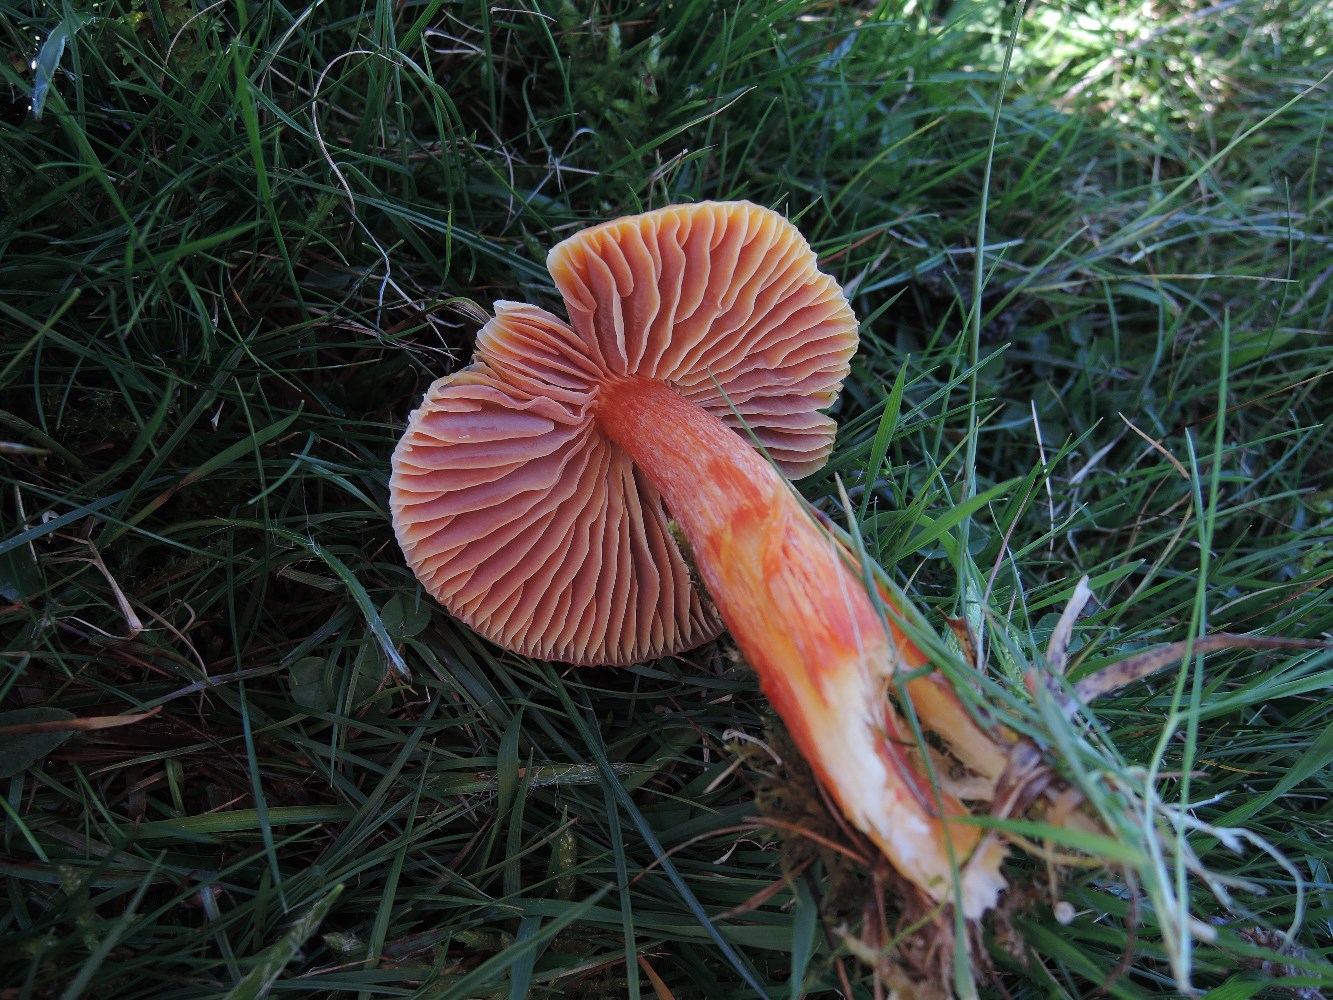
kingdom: Fungi
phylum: Basidiomycota
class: Agaricomycetes
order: Agaricales
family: Hygrophoraceae
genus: Hygrocybe
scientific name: Hygrocybe punicea
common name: skarlagen-vokshat
